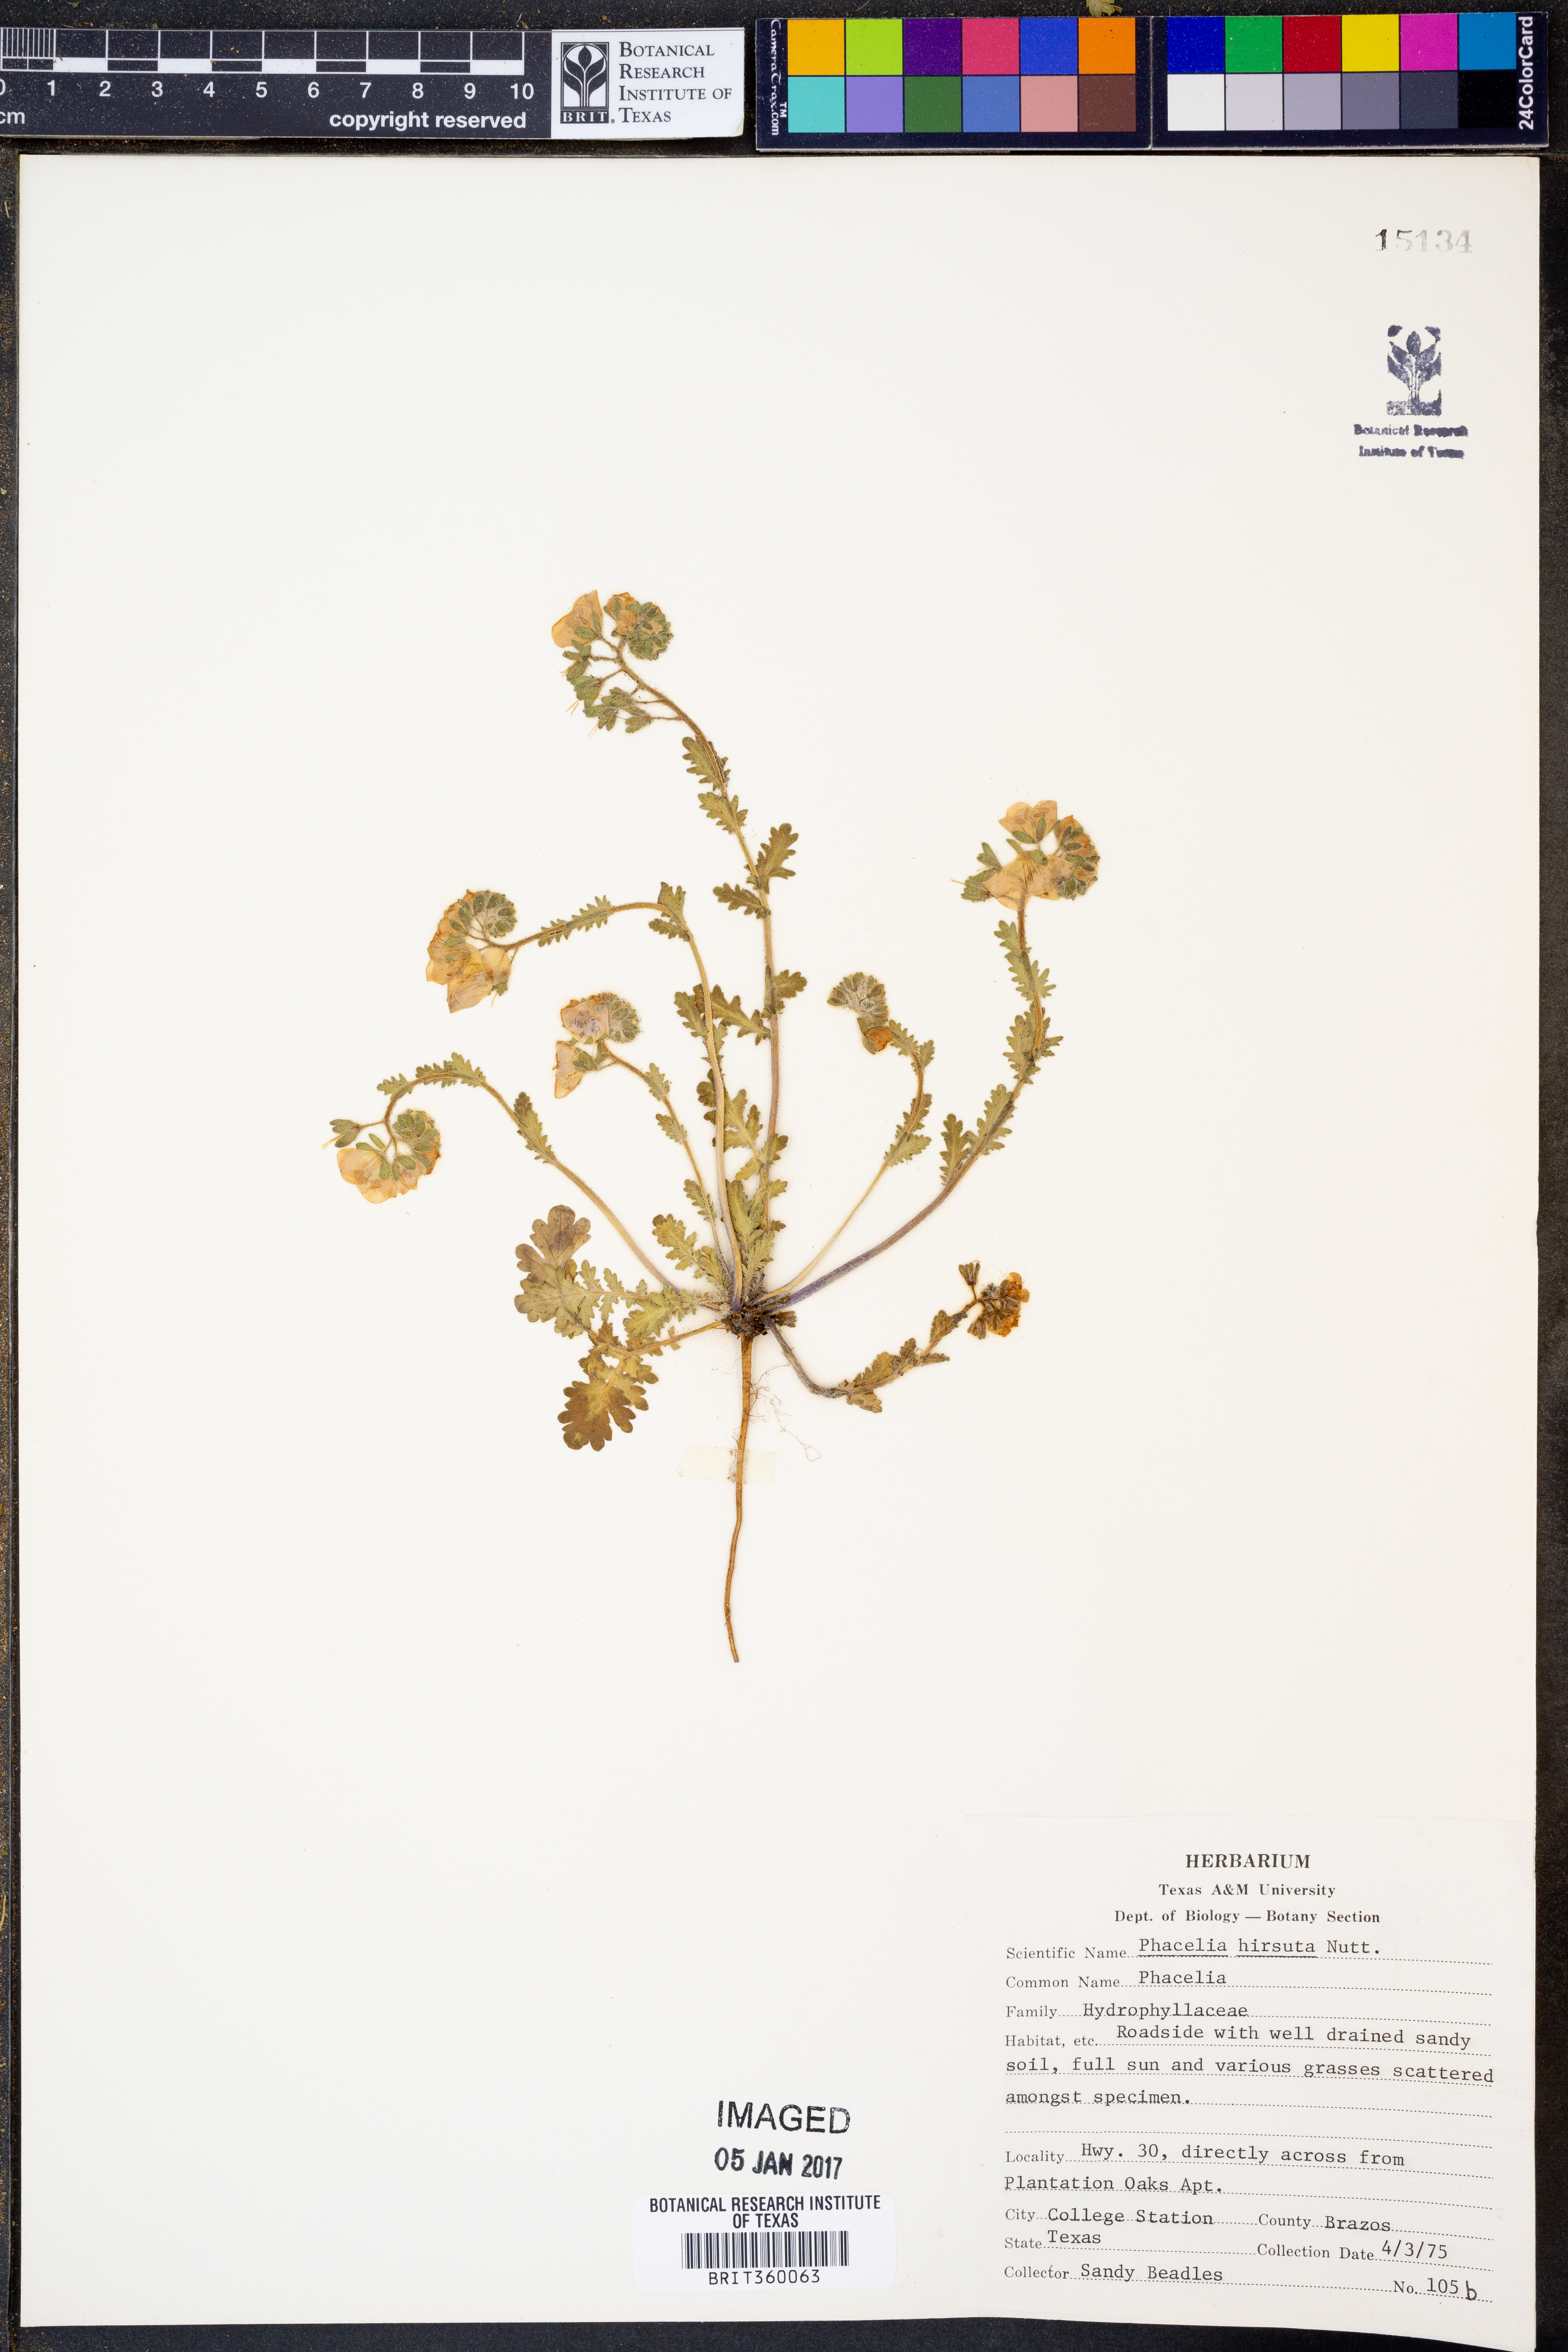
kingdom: Plantae
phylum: Tracheophyta
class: Magnoliopsida
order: Boraginales
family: Hydrophyllaceae
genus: Phacelia
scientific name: Phacelia hirsuta
